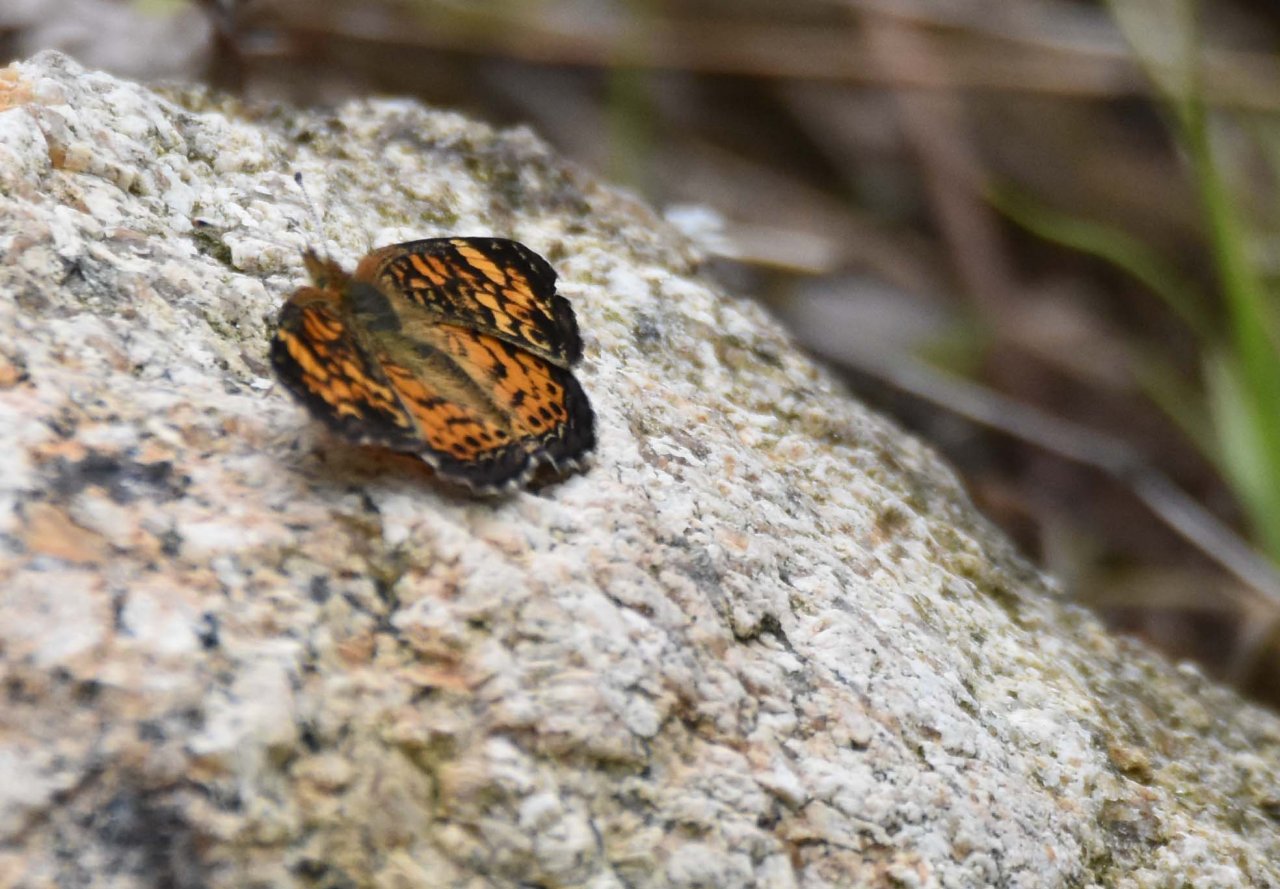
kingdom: Animalia
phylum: Arthropoda
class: Insecta
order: Lepidoptera
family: Nymphalidae
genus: Phyciodes
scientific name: Phyciodes tharos
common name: Pearl Crescent
